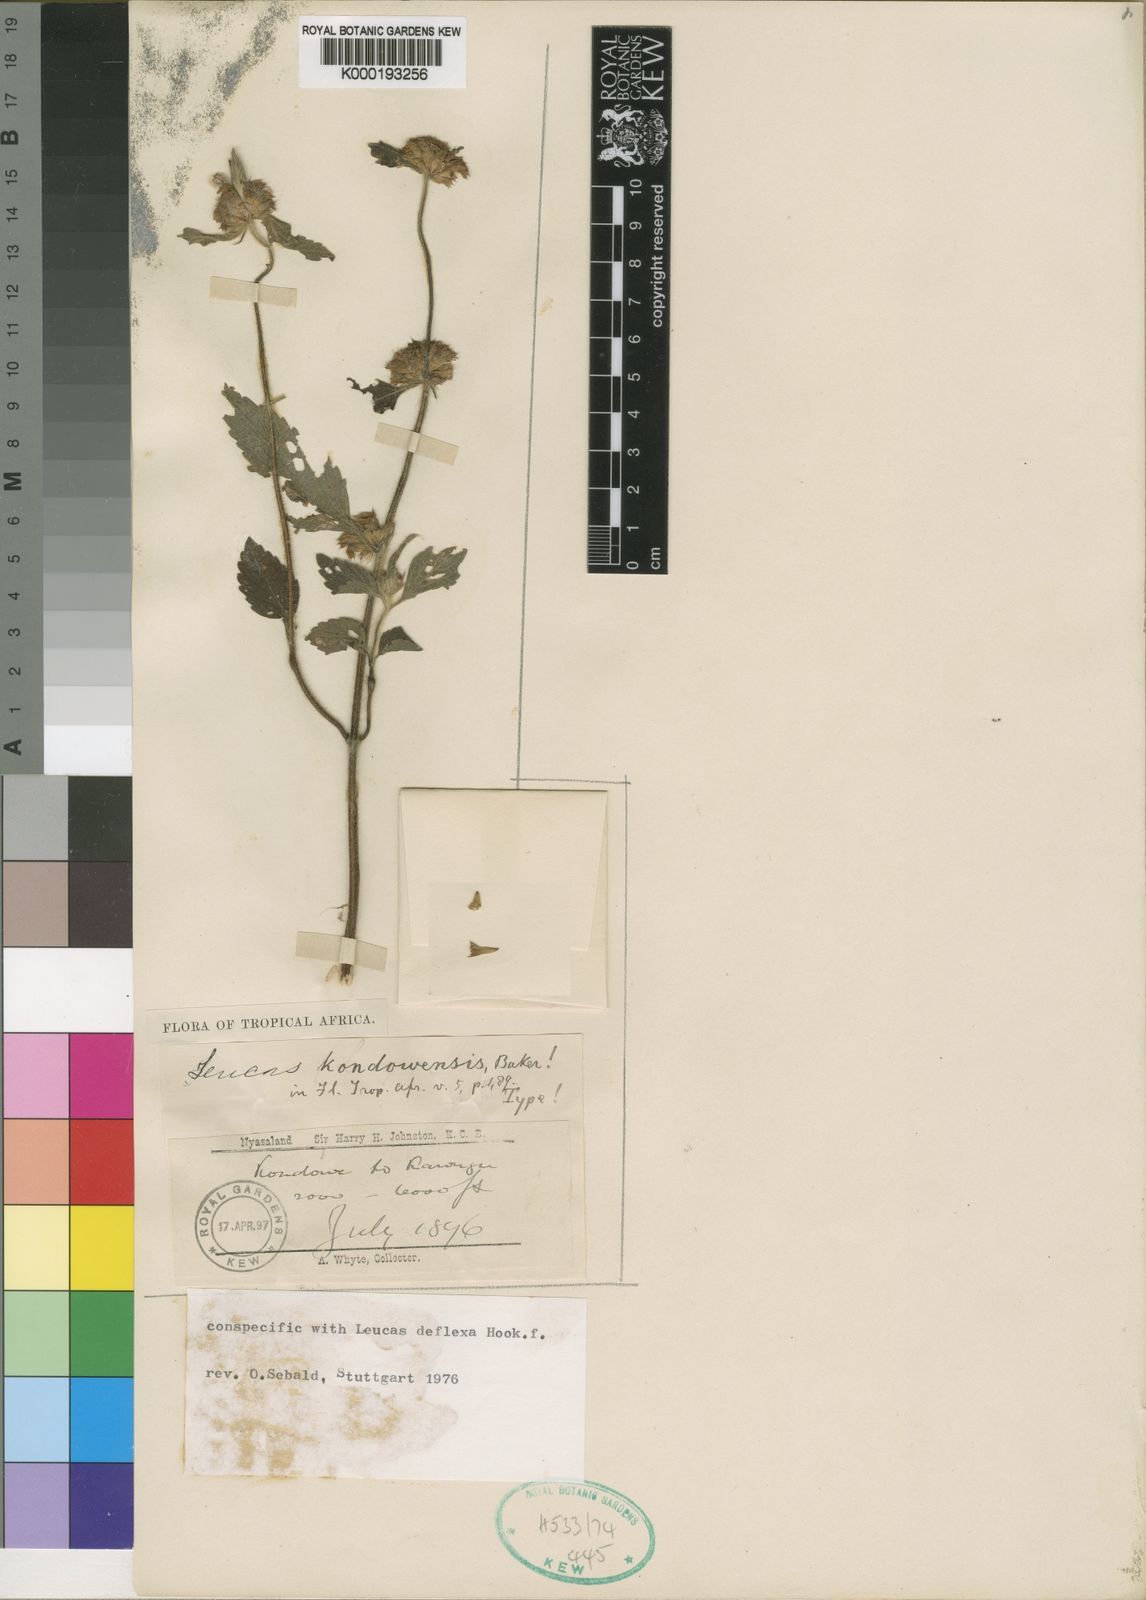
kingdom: Plantae
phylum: Tracheophyta
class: Magnoliopsida
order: Lamiales
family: Lamiaceae
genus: Leucas
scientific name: Leucas deflexa
